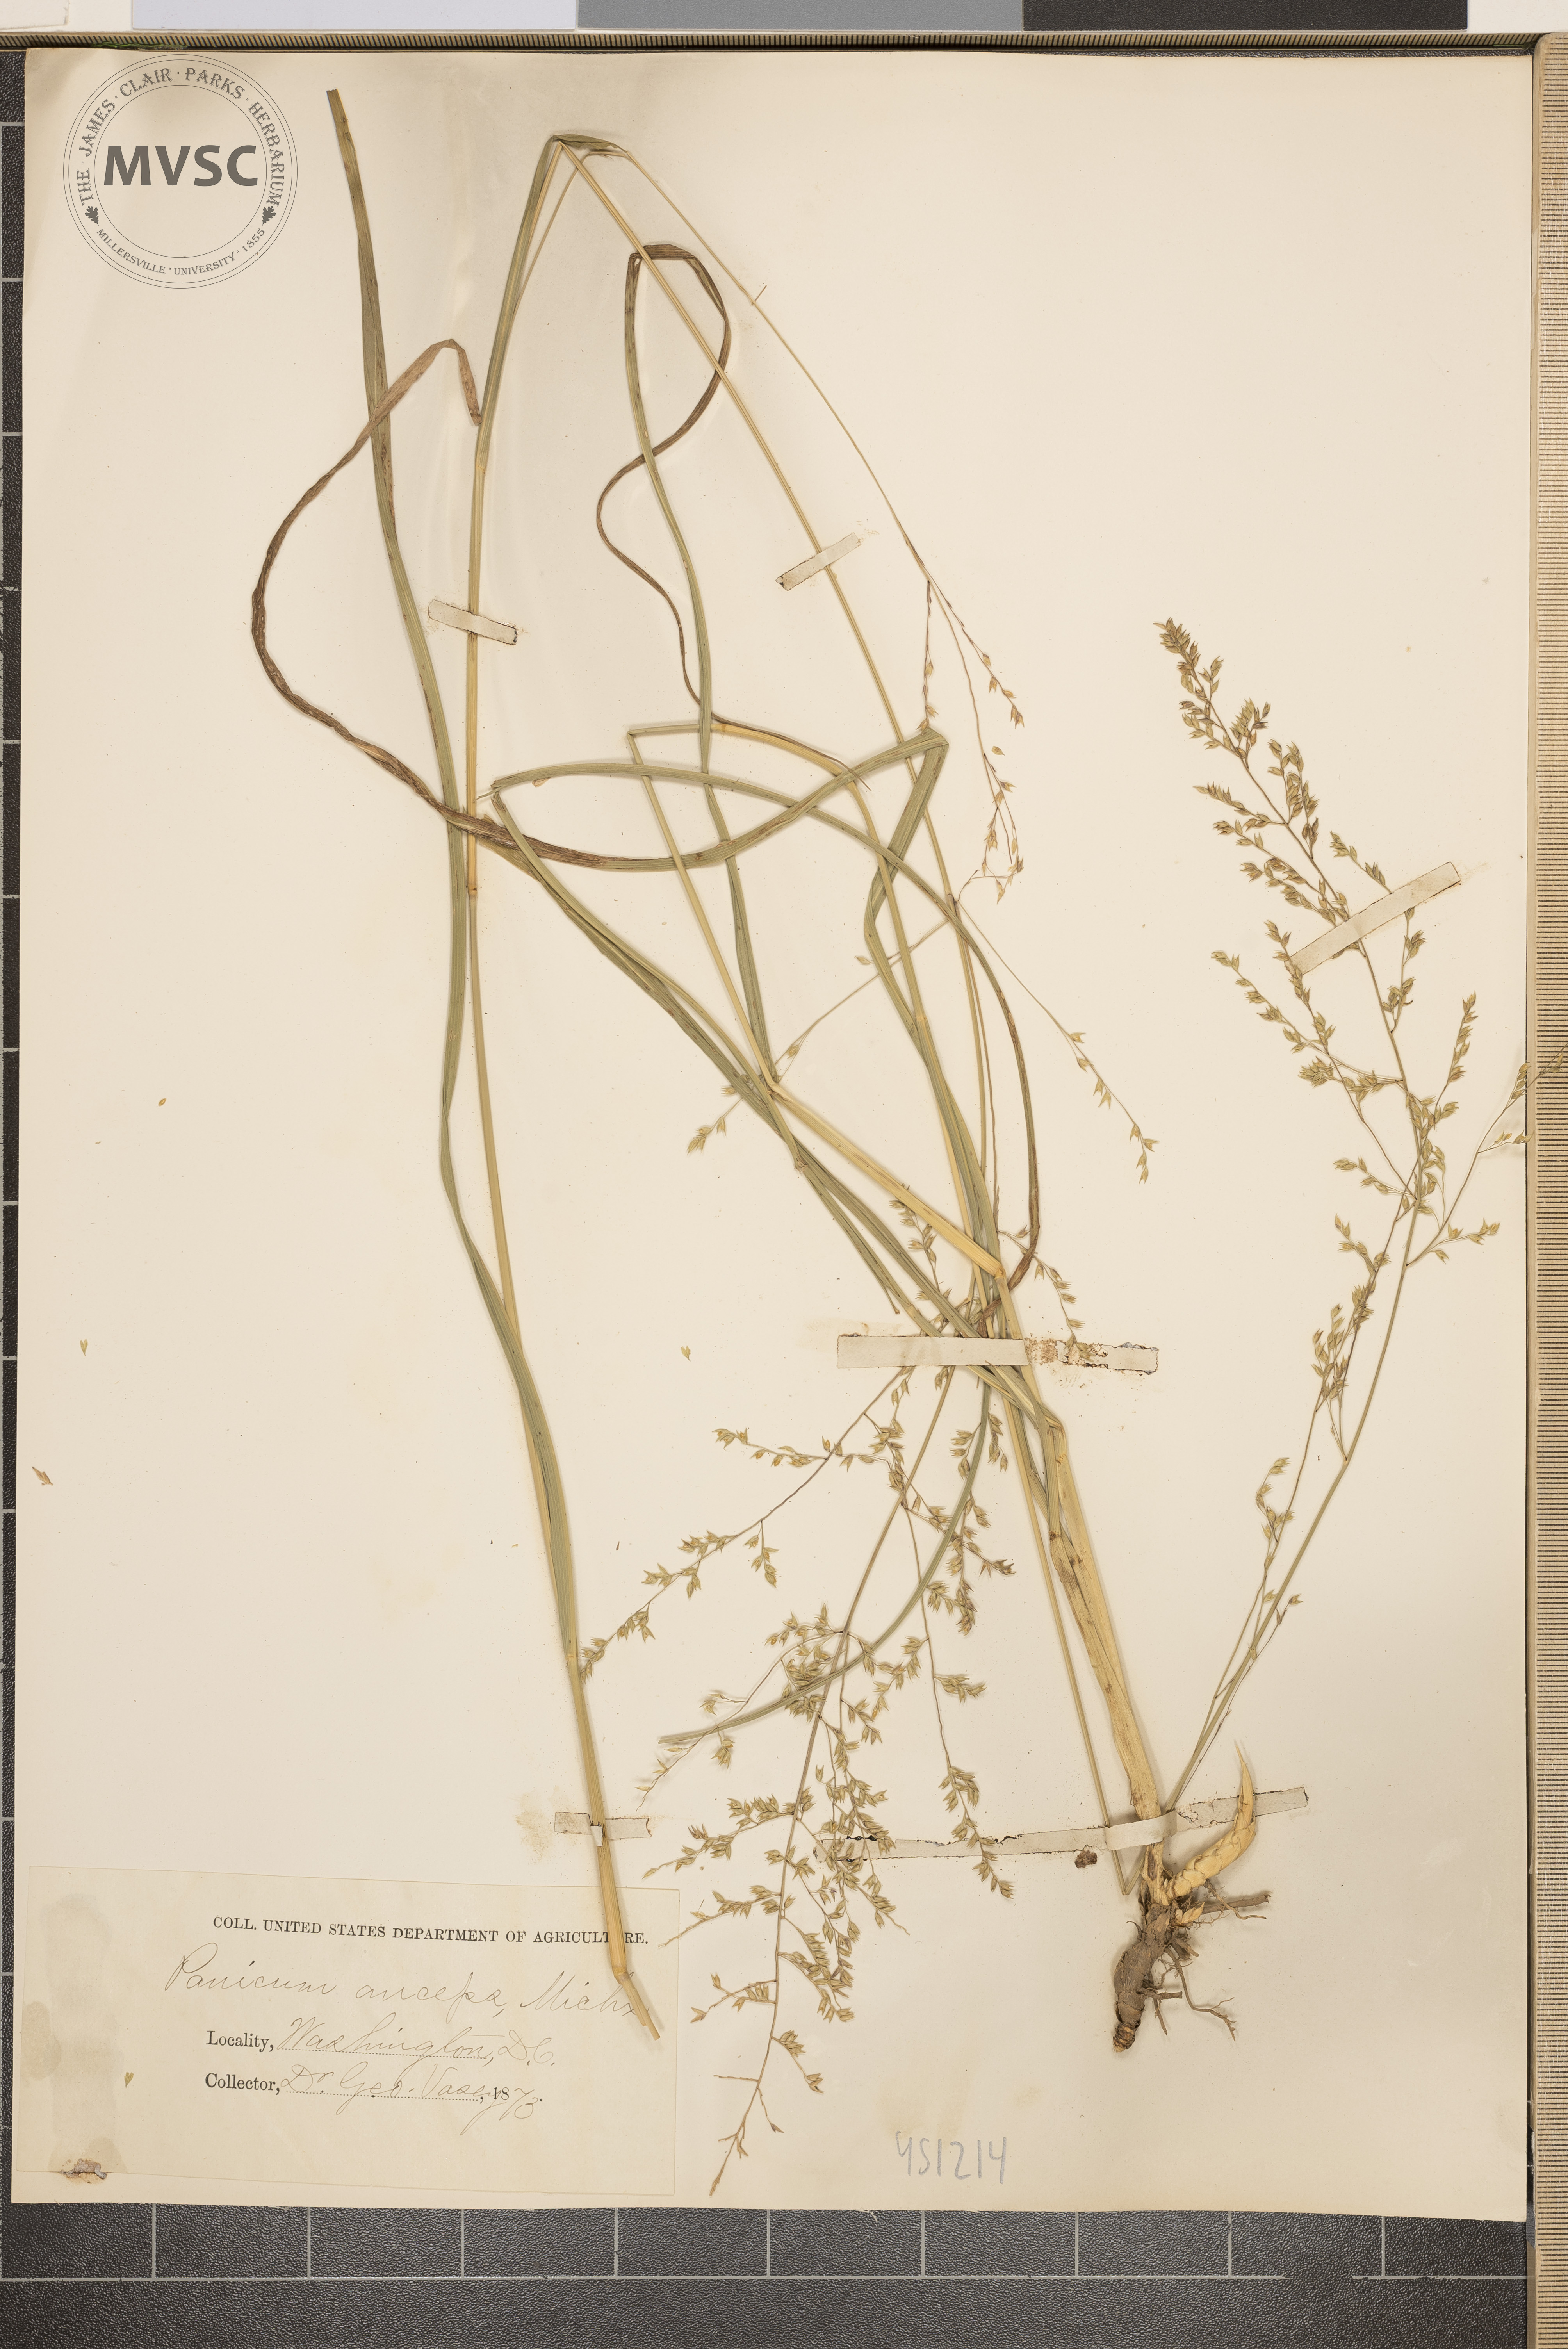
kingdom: Plantae
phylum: Tracheophyta
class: Liliopsida
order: Poales
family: Poaceae
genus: Coleataenia
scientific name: Coleataenia anceps
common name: Beaked panic grass
